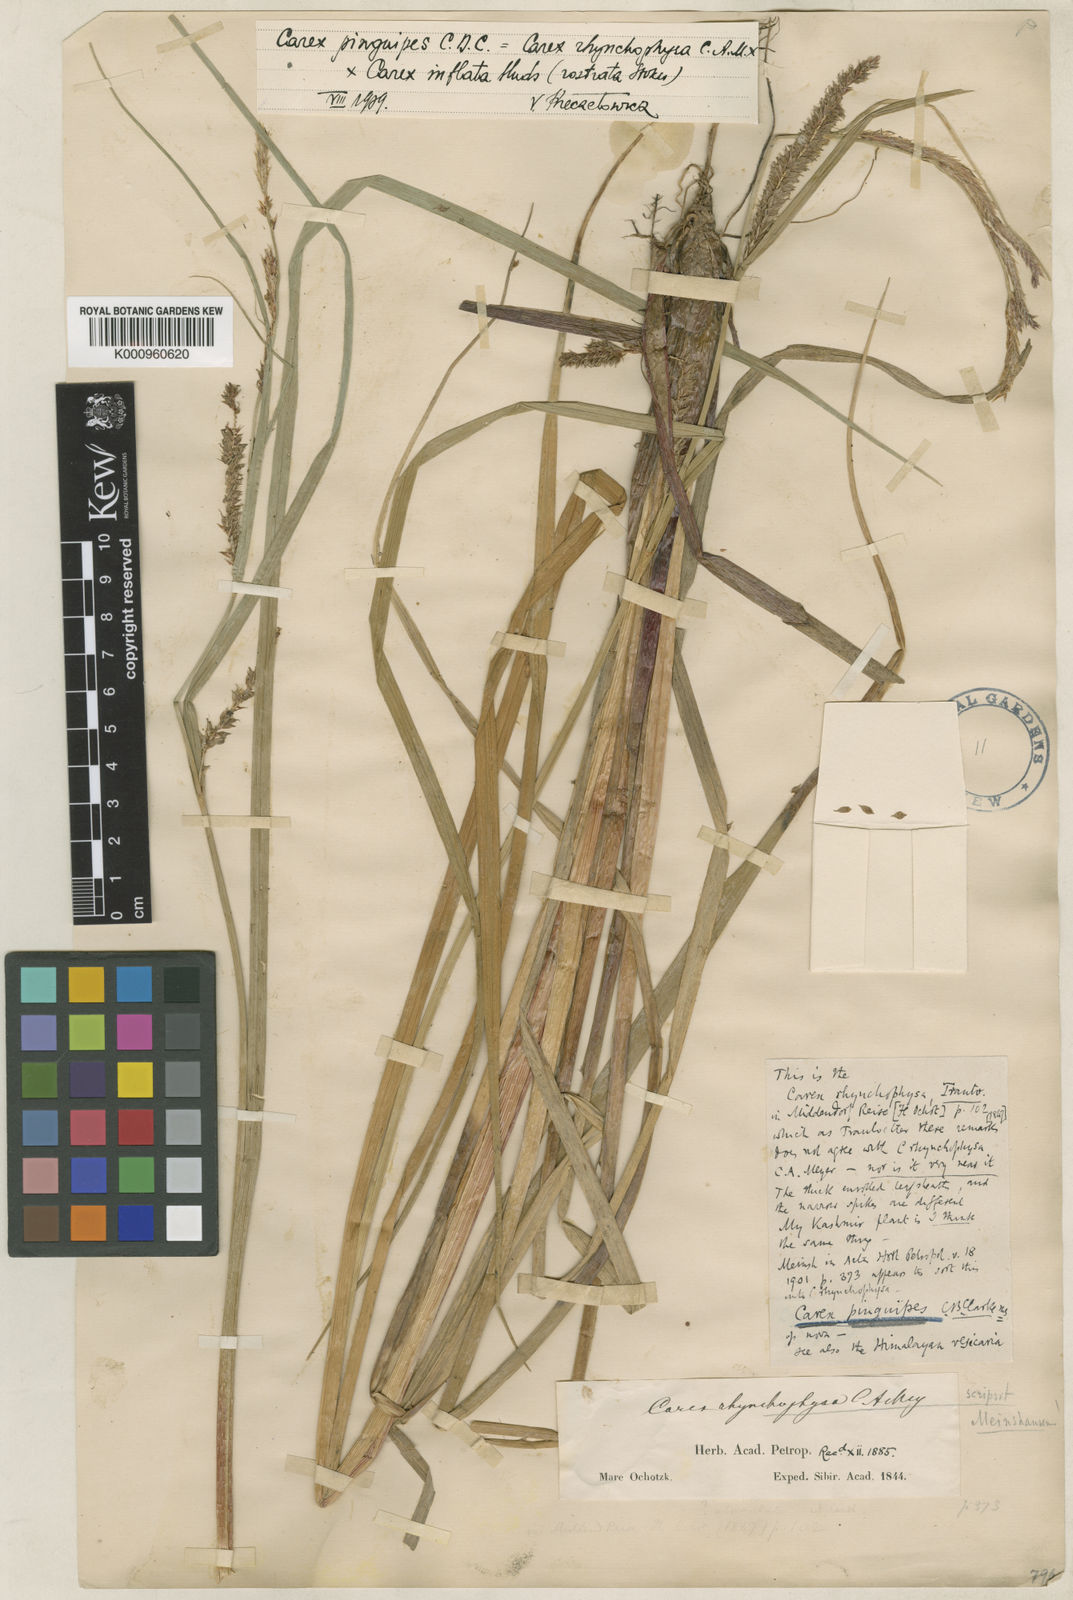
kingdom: Plantae
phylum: Tracheophyta
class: Liliopsida
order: Poales
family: Cyperaceae
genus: Carex
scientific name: Carex pinguipes
